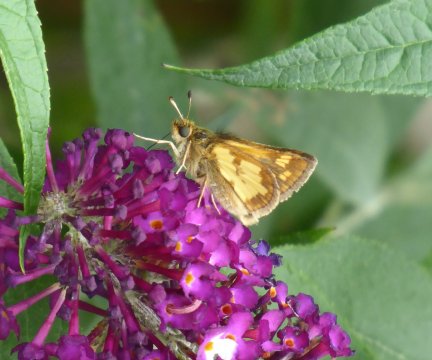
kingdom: Animalia
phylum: Arthropoda
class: Insecta
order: Lepidoptera
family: Hesperiidae
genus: Polites
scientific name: Polites coras
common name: Peck's Skipper
